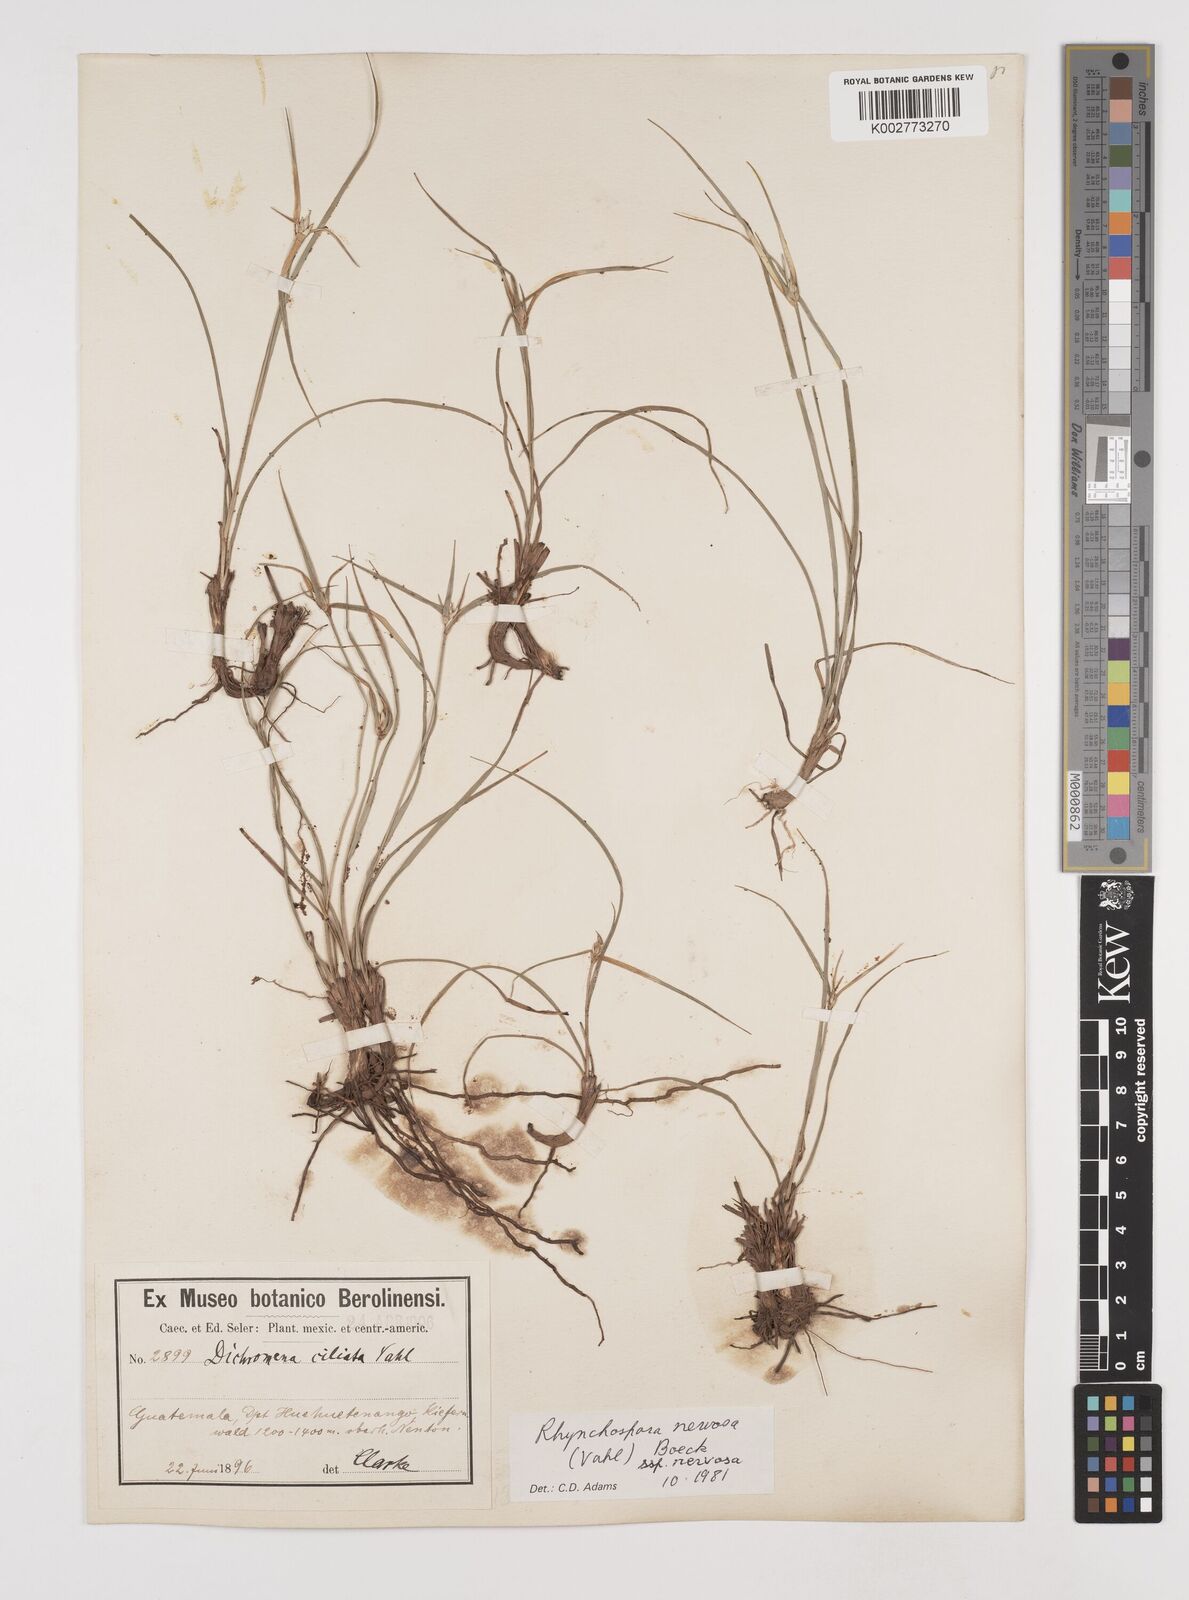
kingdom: Plantae
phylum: Tracheophyta
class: Liliopsida
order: Poales
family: Cyperaceae
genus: Rhynchospora
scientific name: Rhynchospora nervosa
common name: Star sedge
